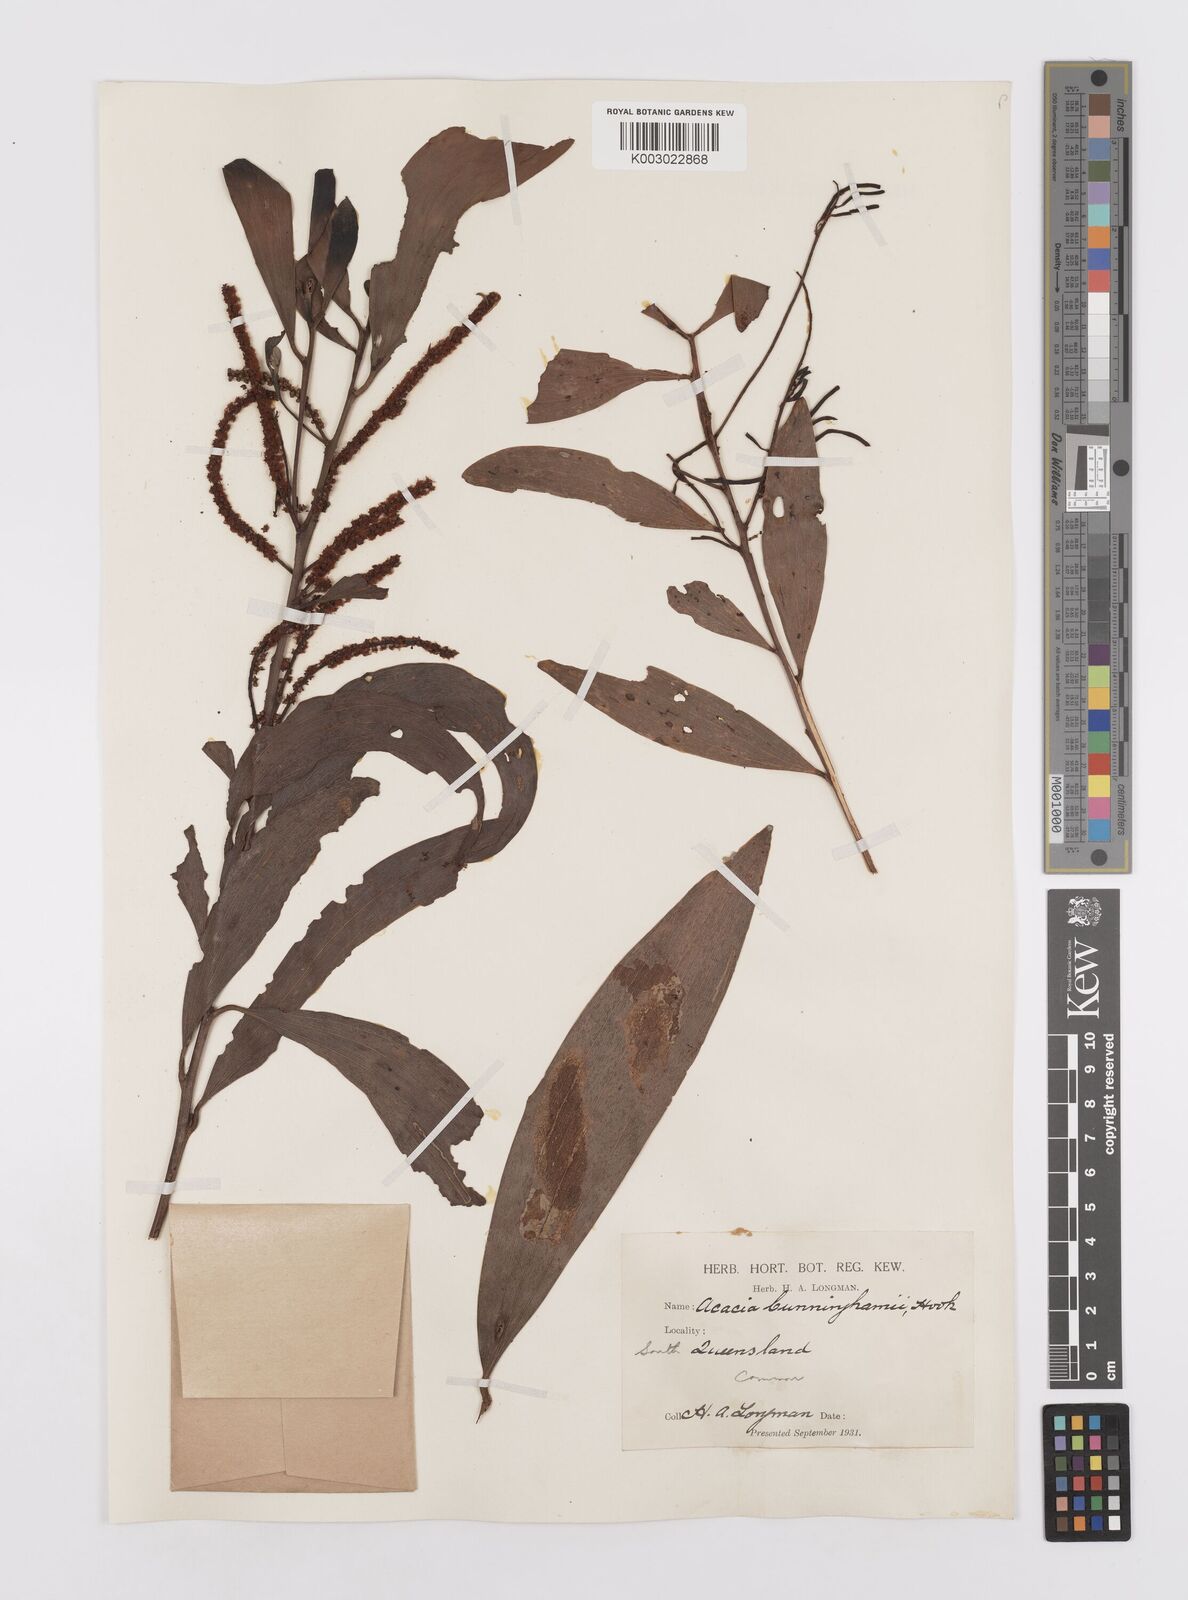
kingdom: Plantae
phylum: Tracheophyta
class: Magnoliopsida
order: Fabales
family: Fabaceae
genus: Acacia
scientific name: Acacia longispicata
